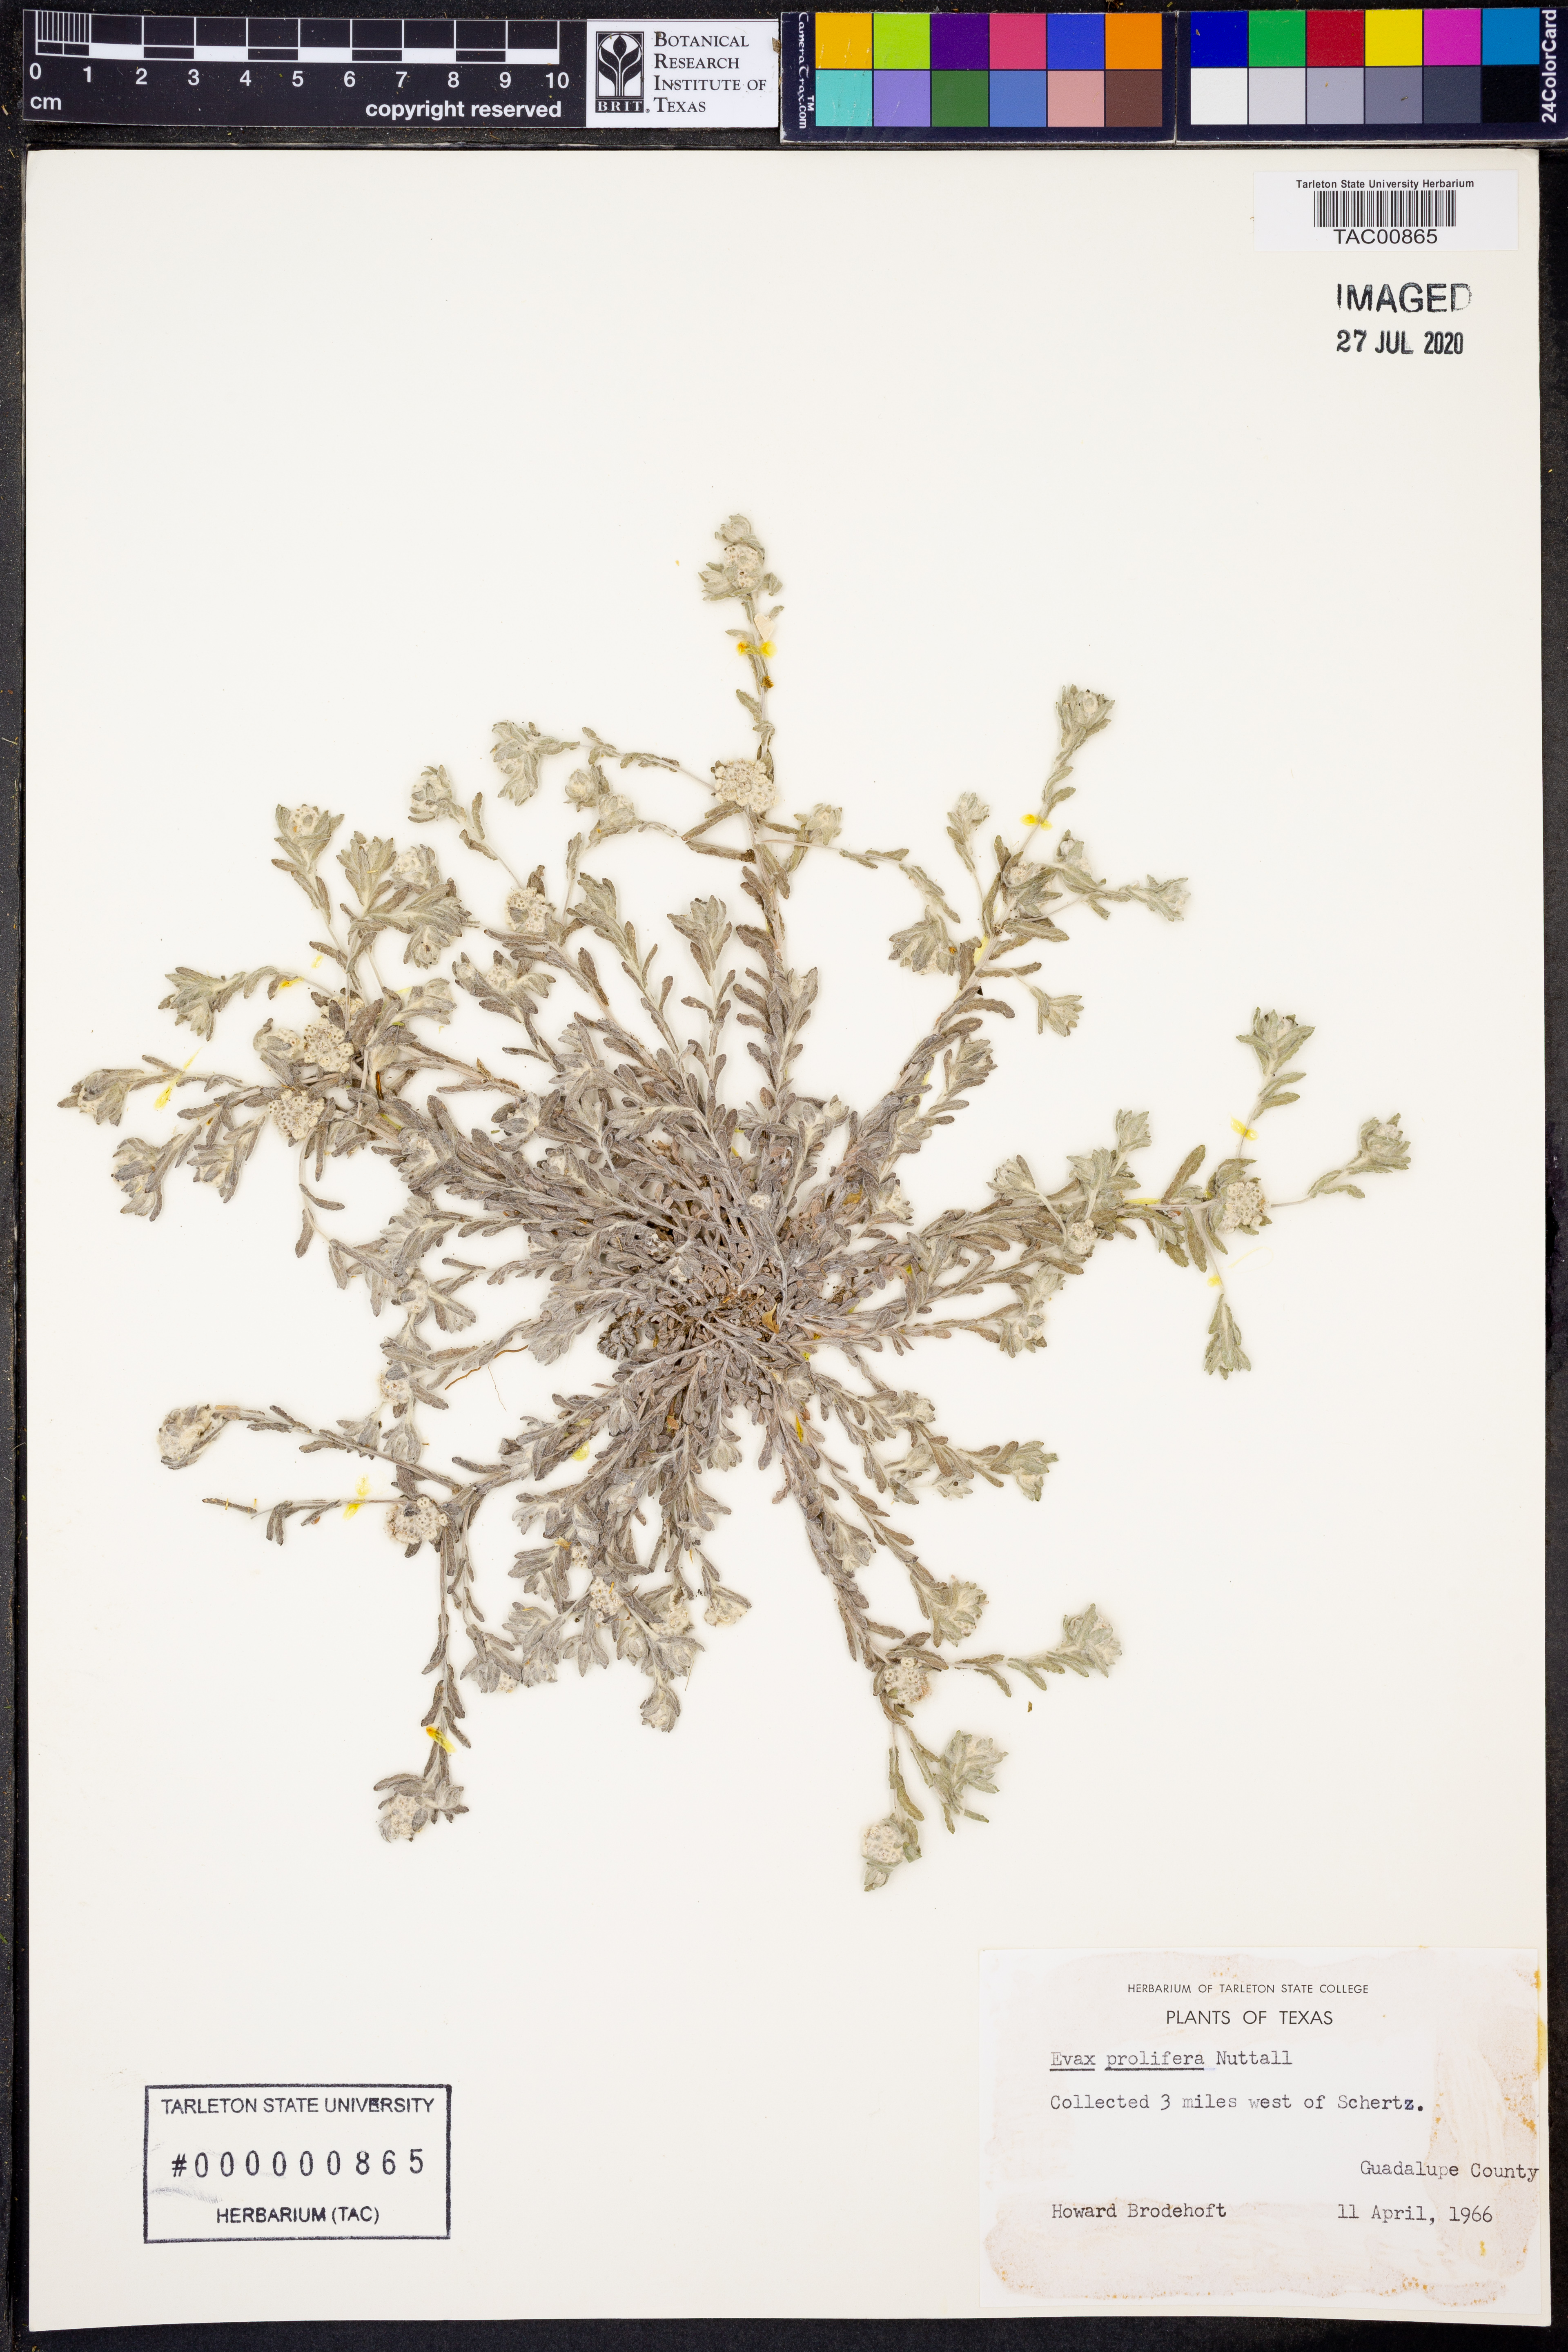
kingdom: Plantae
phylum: Tracheophyta
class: Magnoliopsida
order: Asterales
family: Asteraceae
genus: Diaperia
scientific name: Diaperia prolifera
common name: Big-head rabbit-tobacco
